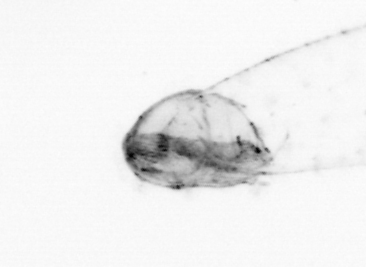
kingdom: Animalia
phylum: Chaetognatha
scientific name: Chaetognatha
